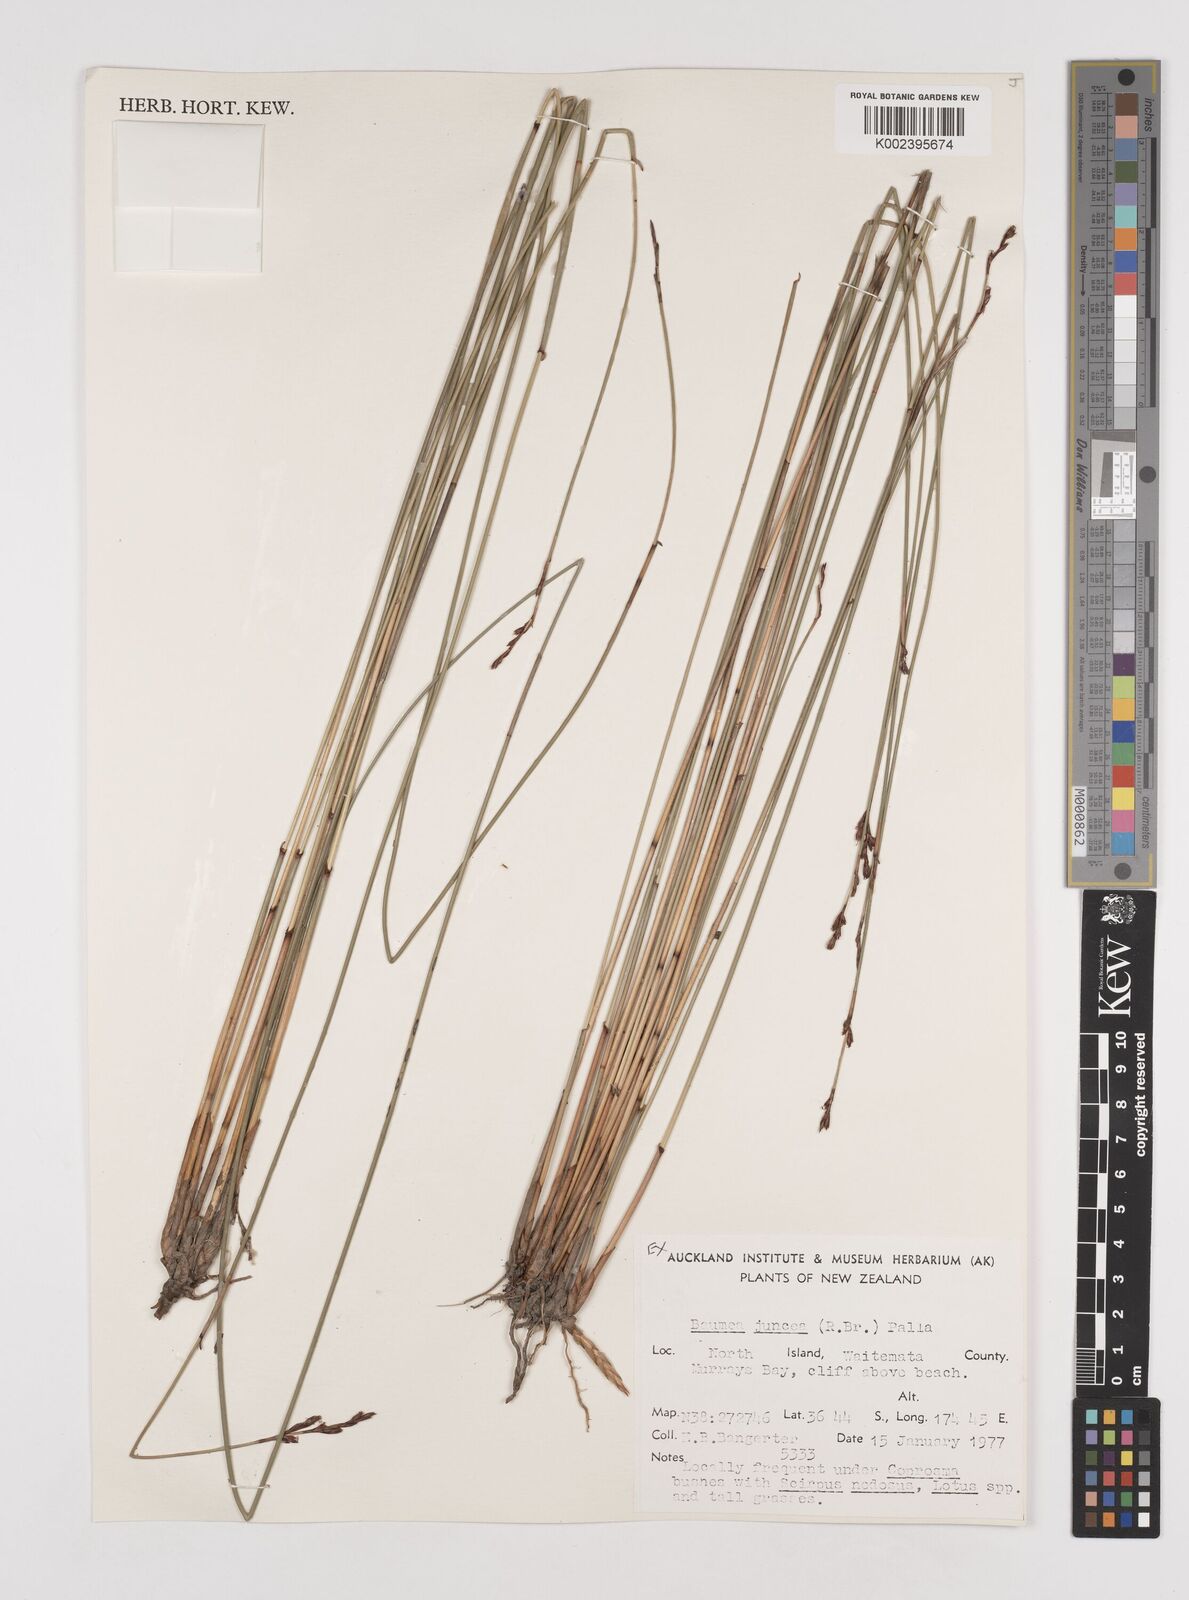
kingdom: Plantae
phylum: Tracheophyta
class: Liliopsida
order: Poales
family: Cyperaceae
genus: Machaerina
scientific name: Machaerina juncea
